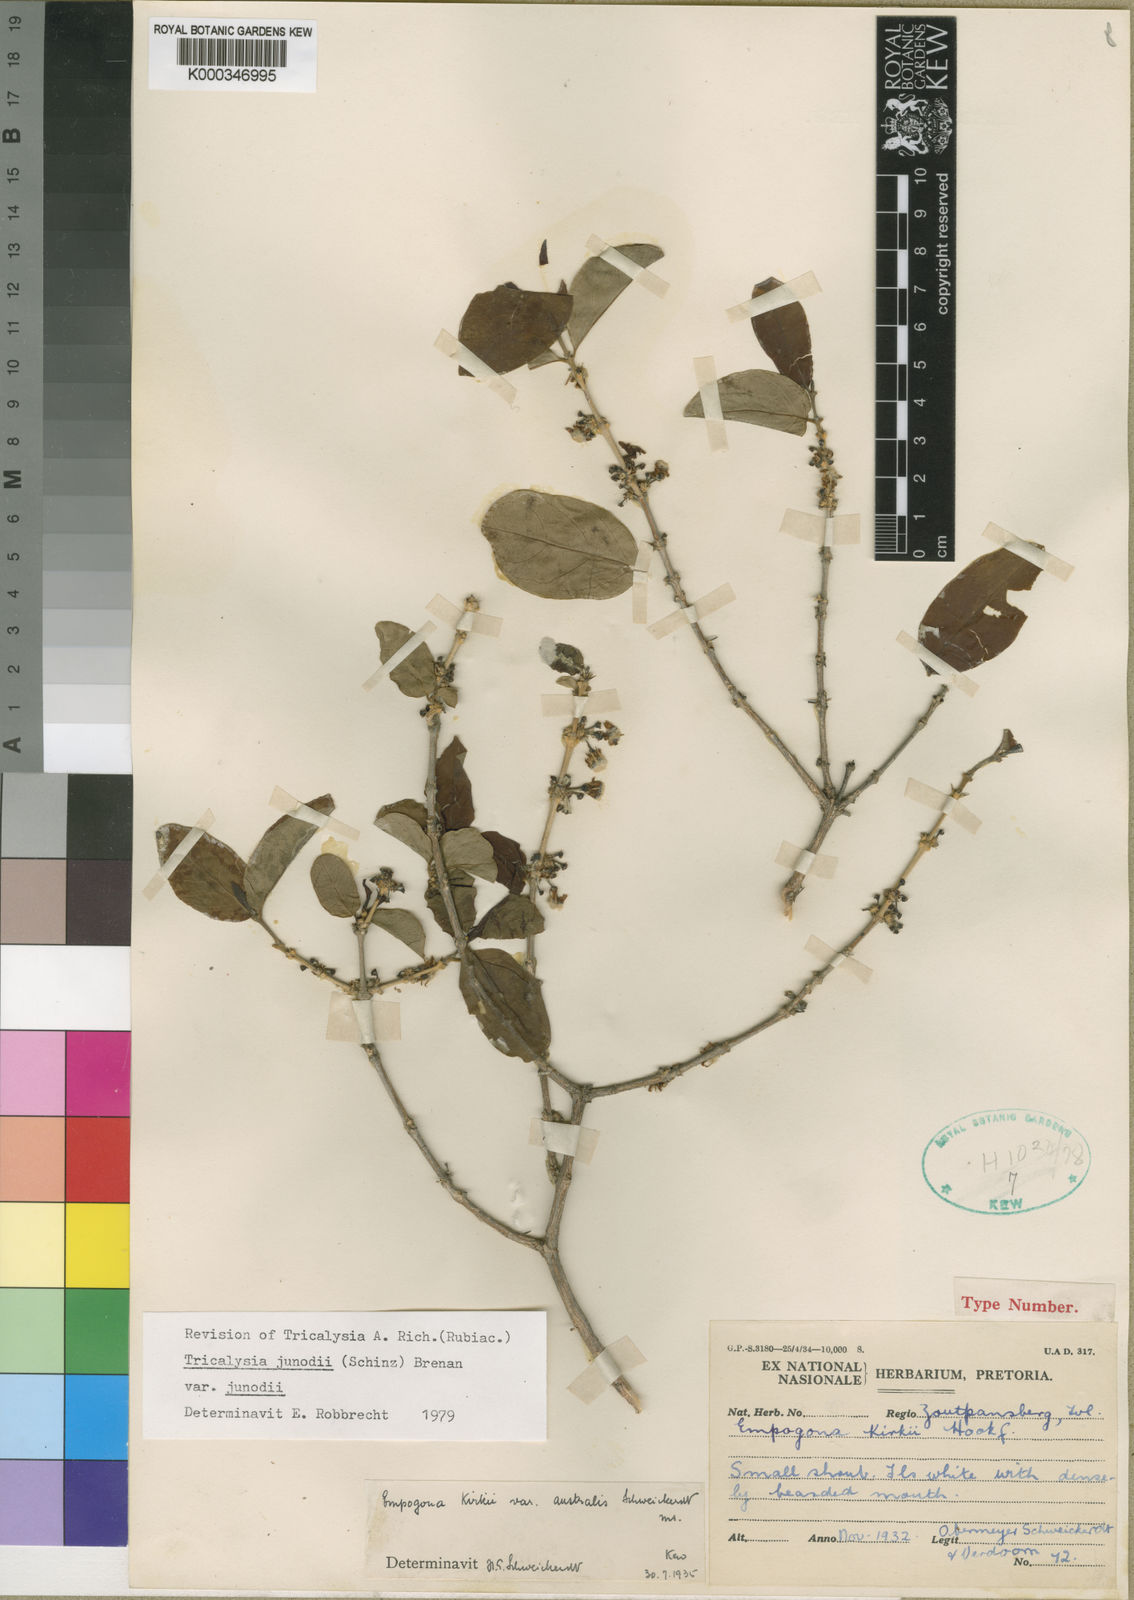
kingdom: Plantae
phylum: Tracheophyta
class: Magnoliopsida
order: Gentianales
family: Rubiaceae
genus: Empogona
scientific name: Empogona kirkii
